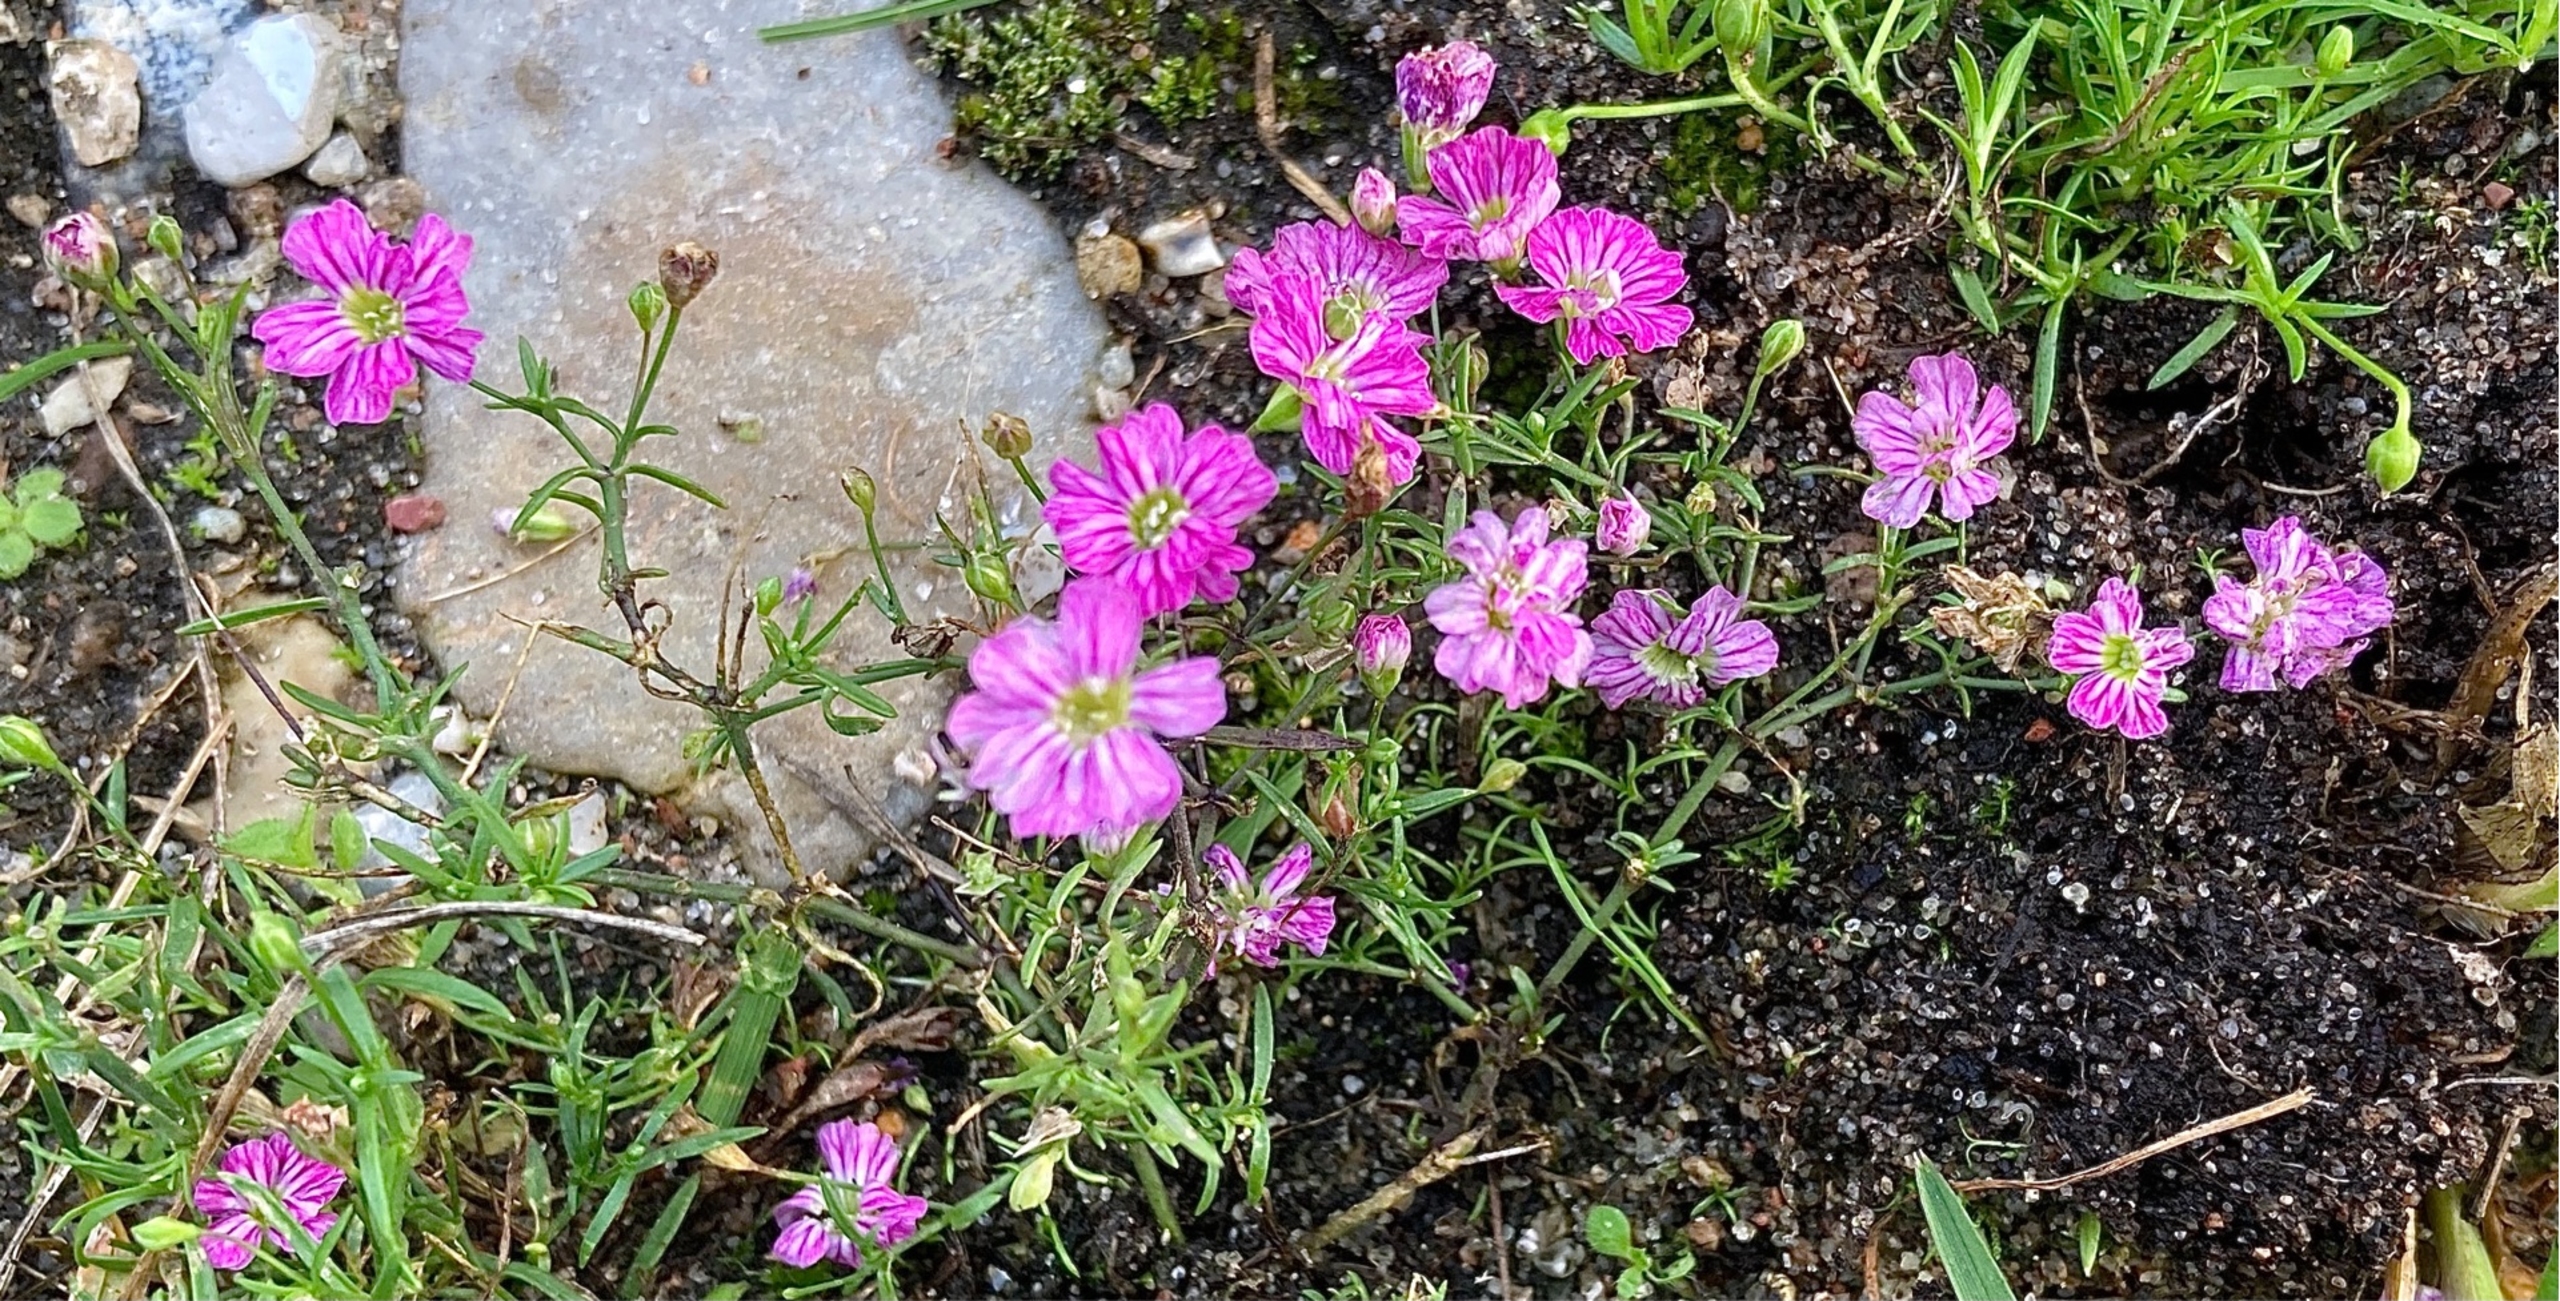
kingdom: Plantae
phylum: Tracheophyta
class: Magnoliopsida
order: Caryophyllales
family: Caryophyllaceae
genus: Psammophiliella
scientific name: Psammophiliella muralis
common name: Mur-gipsurt
